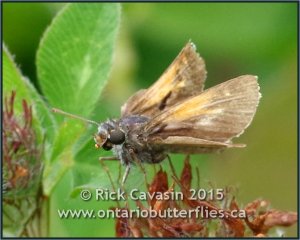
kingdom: Animalia
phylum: Arthropoda
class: Insecta
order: Lepidoptera
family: Hesperiidae
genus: Polites
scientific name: Polites themistocles
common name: Tawny-edged Skipper
